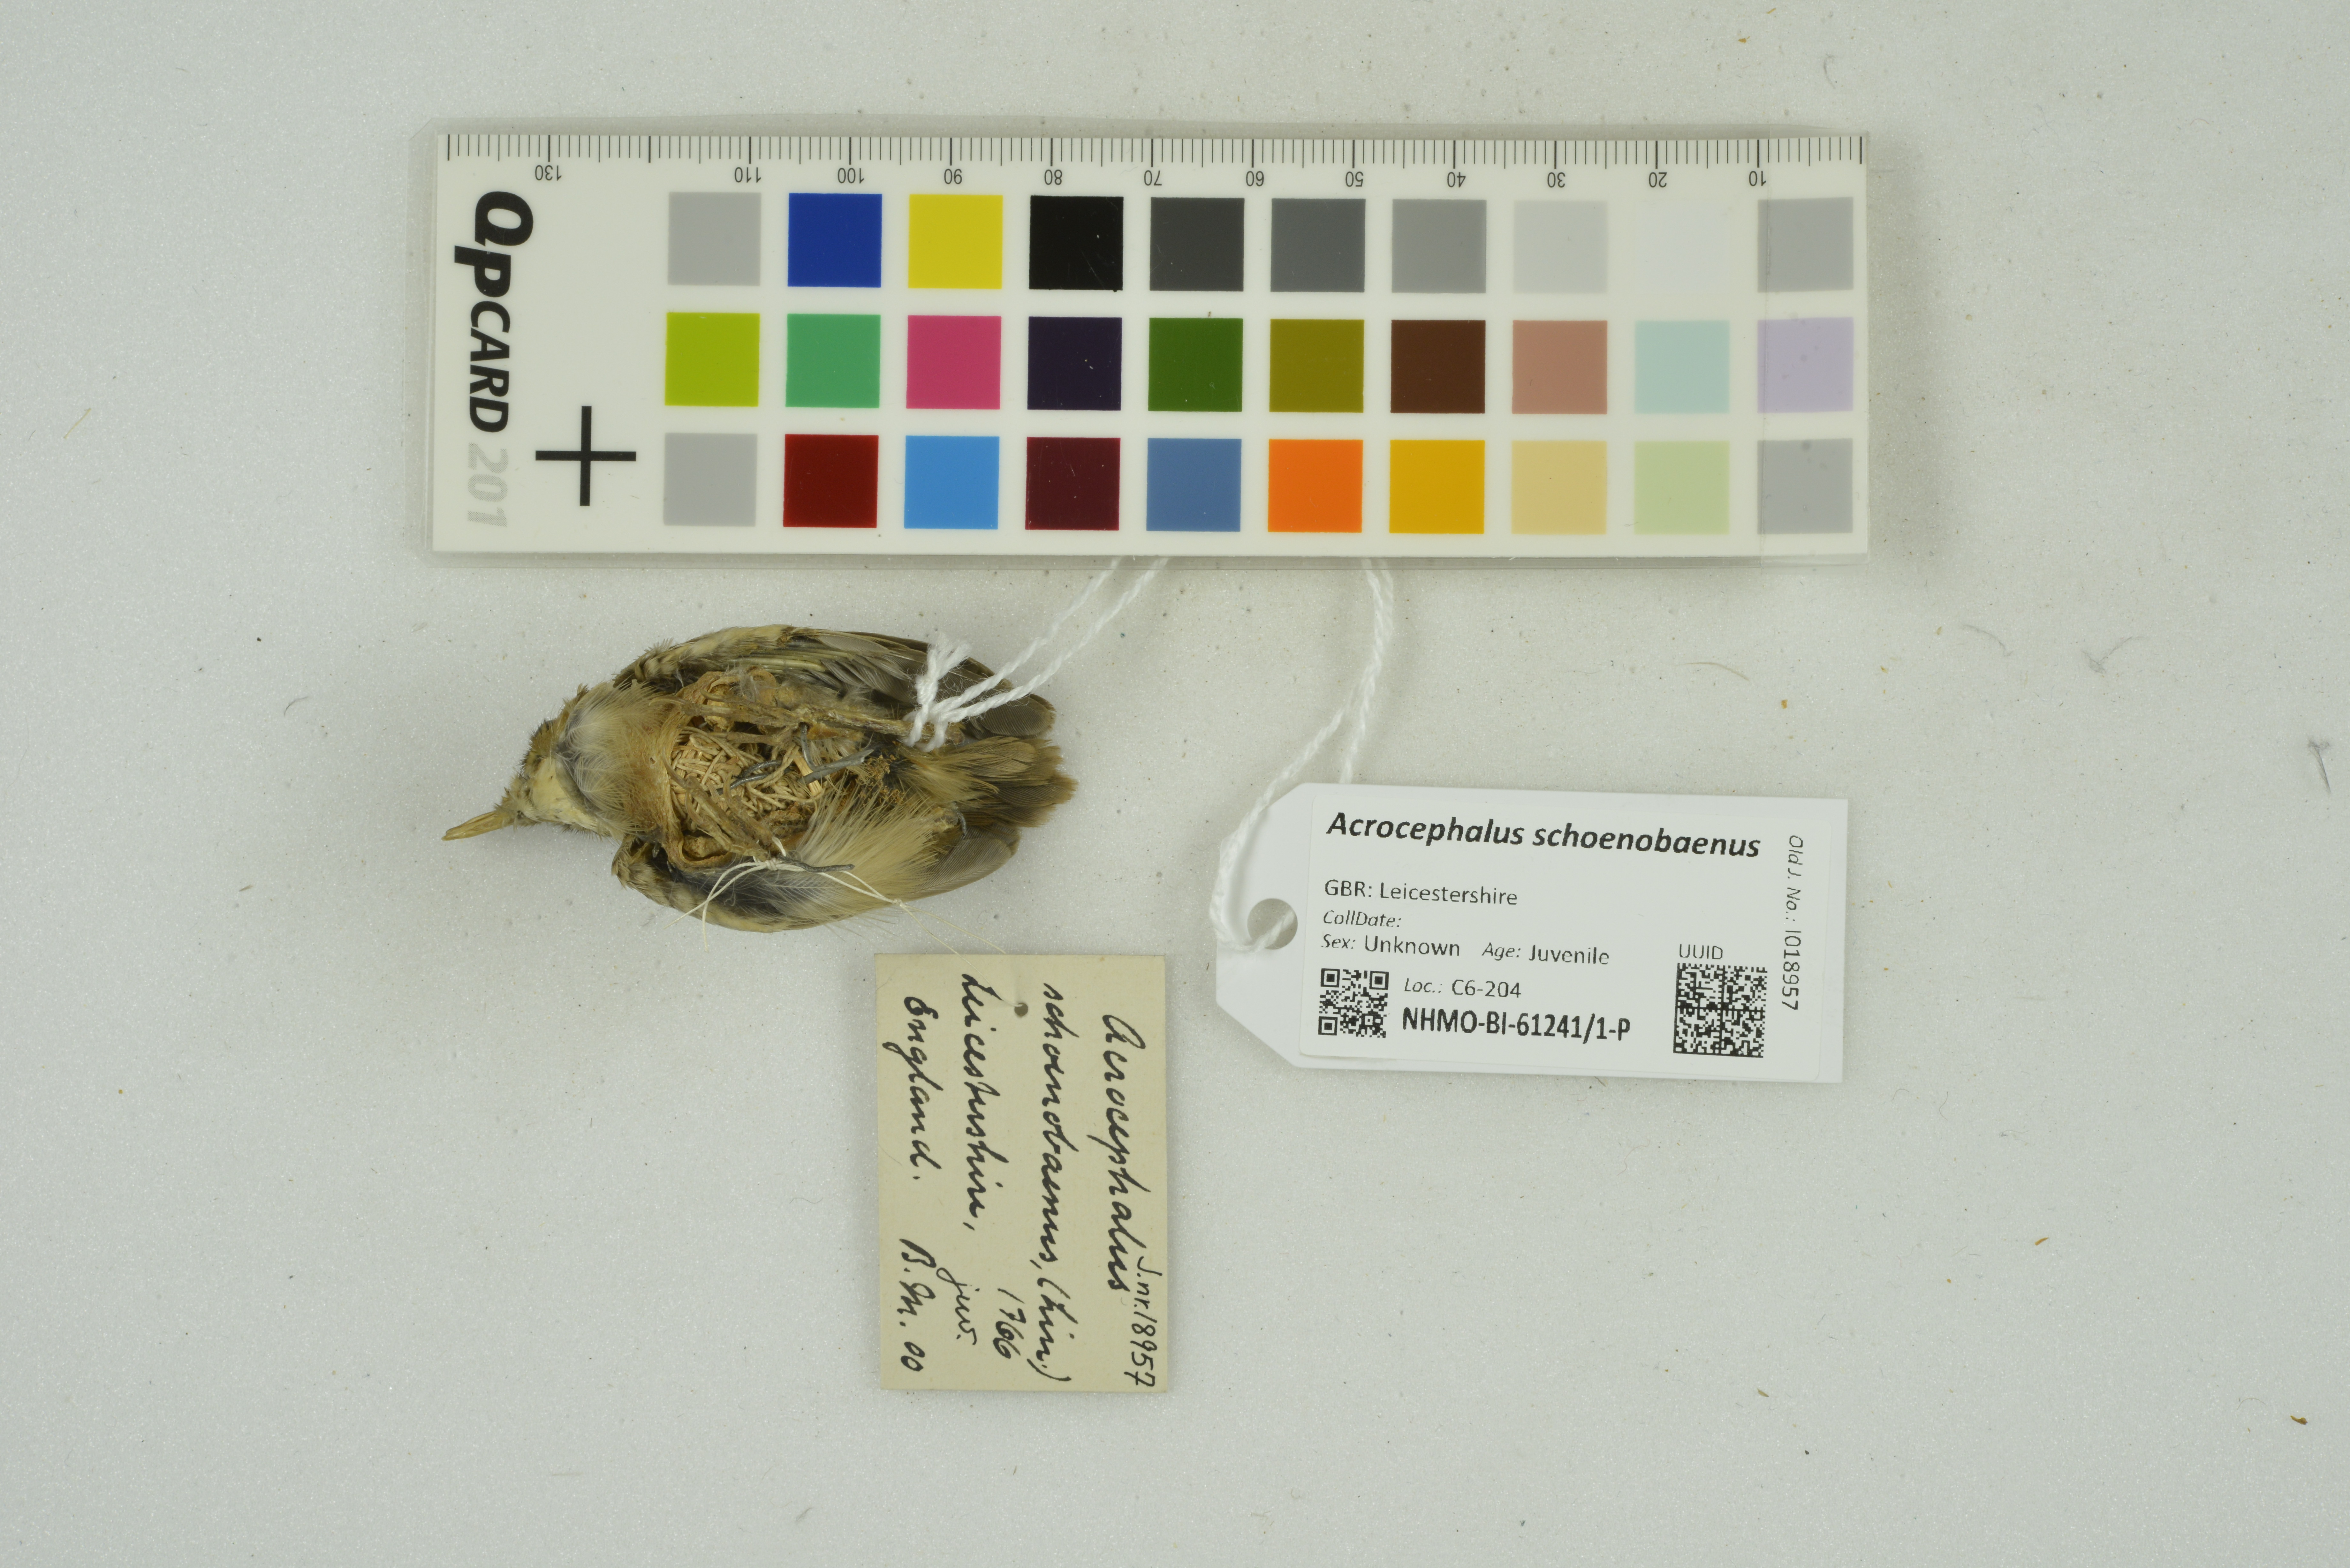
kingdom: Animalia
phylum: Chordata
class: Aves
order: Passeriformes
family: Acrocephalidae
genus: Acrocephalus
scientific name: Acrocephalus schoenobaenus
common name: Sedge warbler
